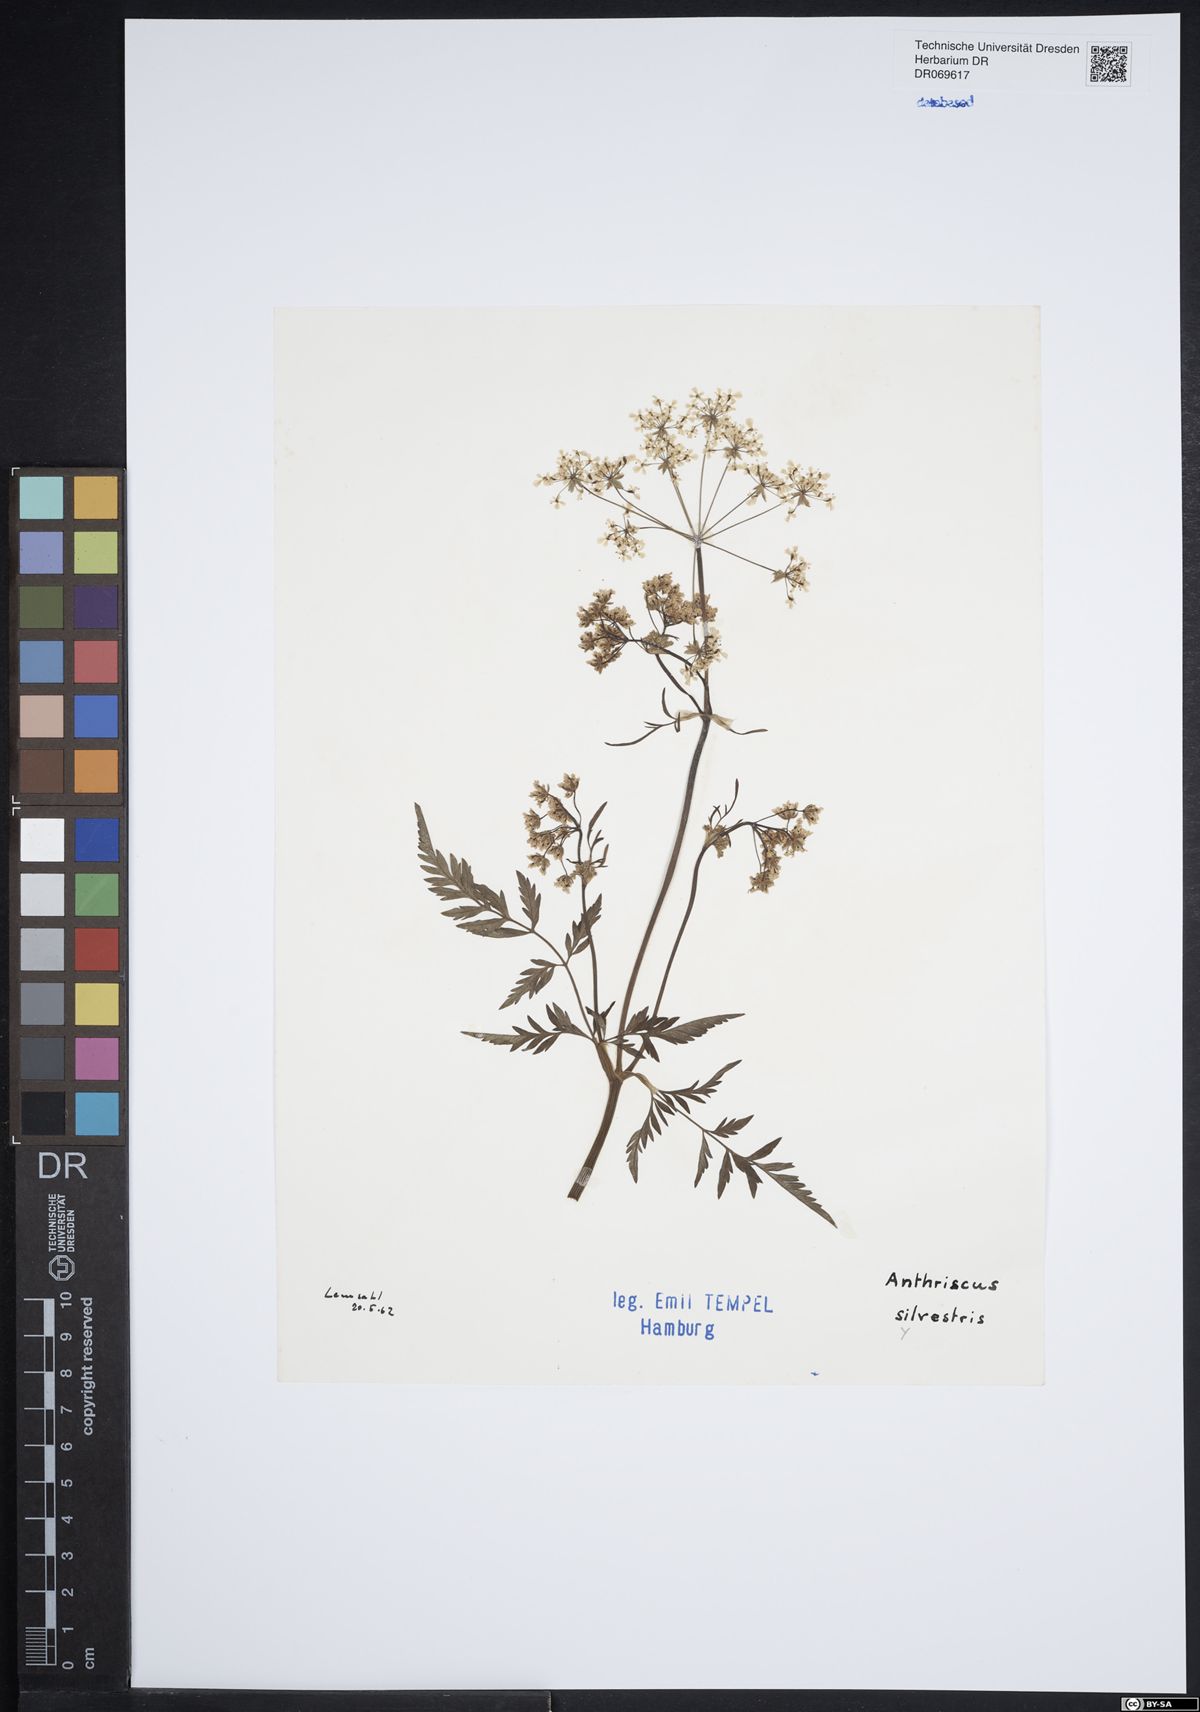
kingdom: Plantae
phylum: Tracheophyta
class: Magnoliopsida
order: Apiales
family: Apiaceae
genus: Anthriscus
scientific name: Anthriscus sylvestris
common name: Cow parsley
